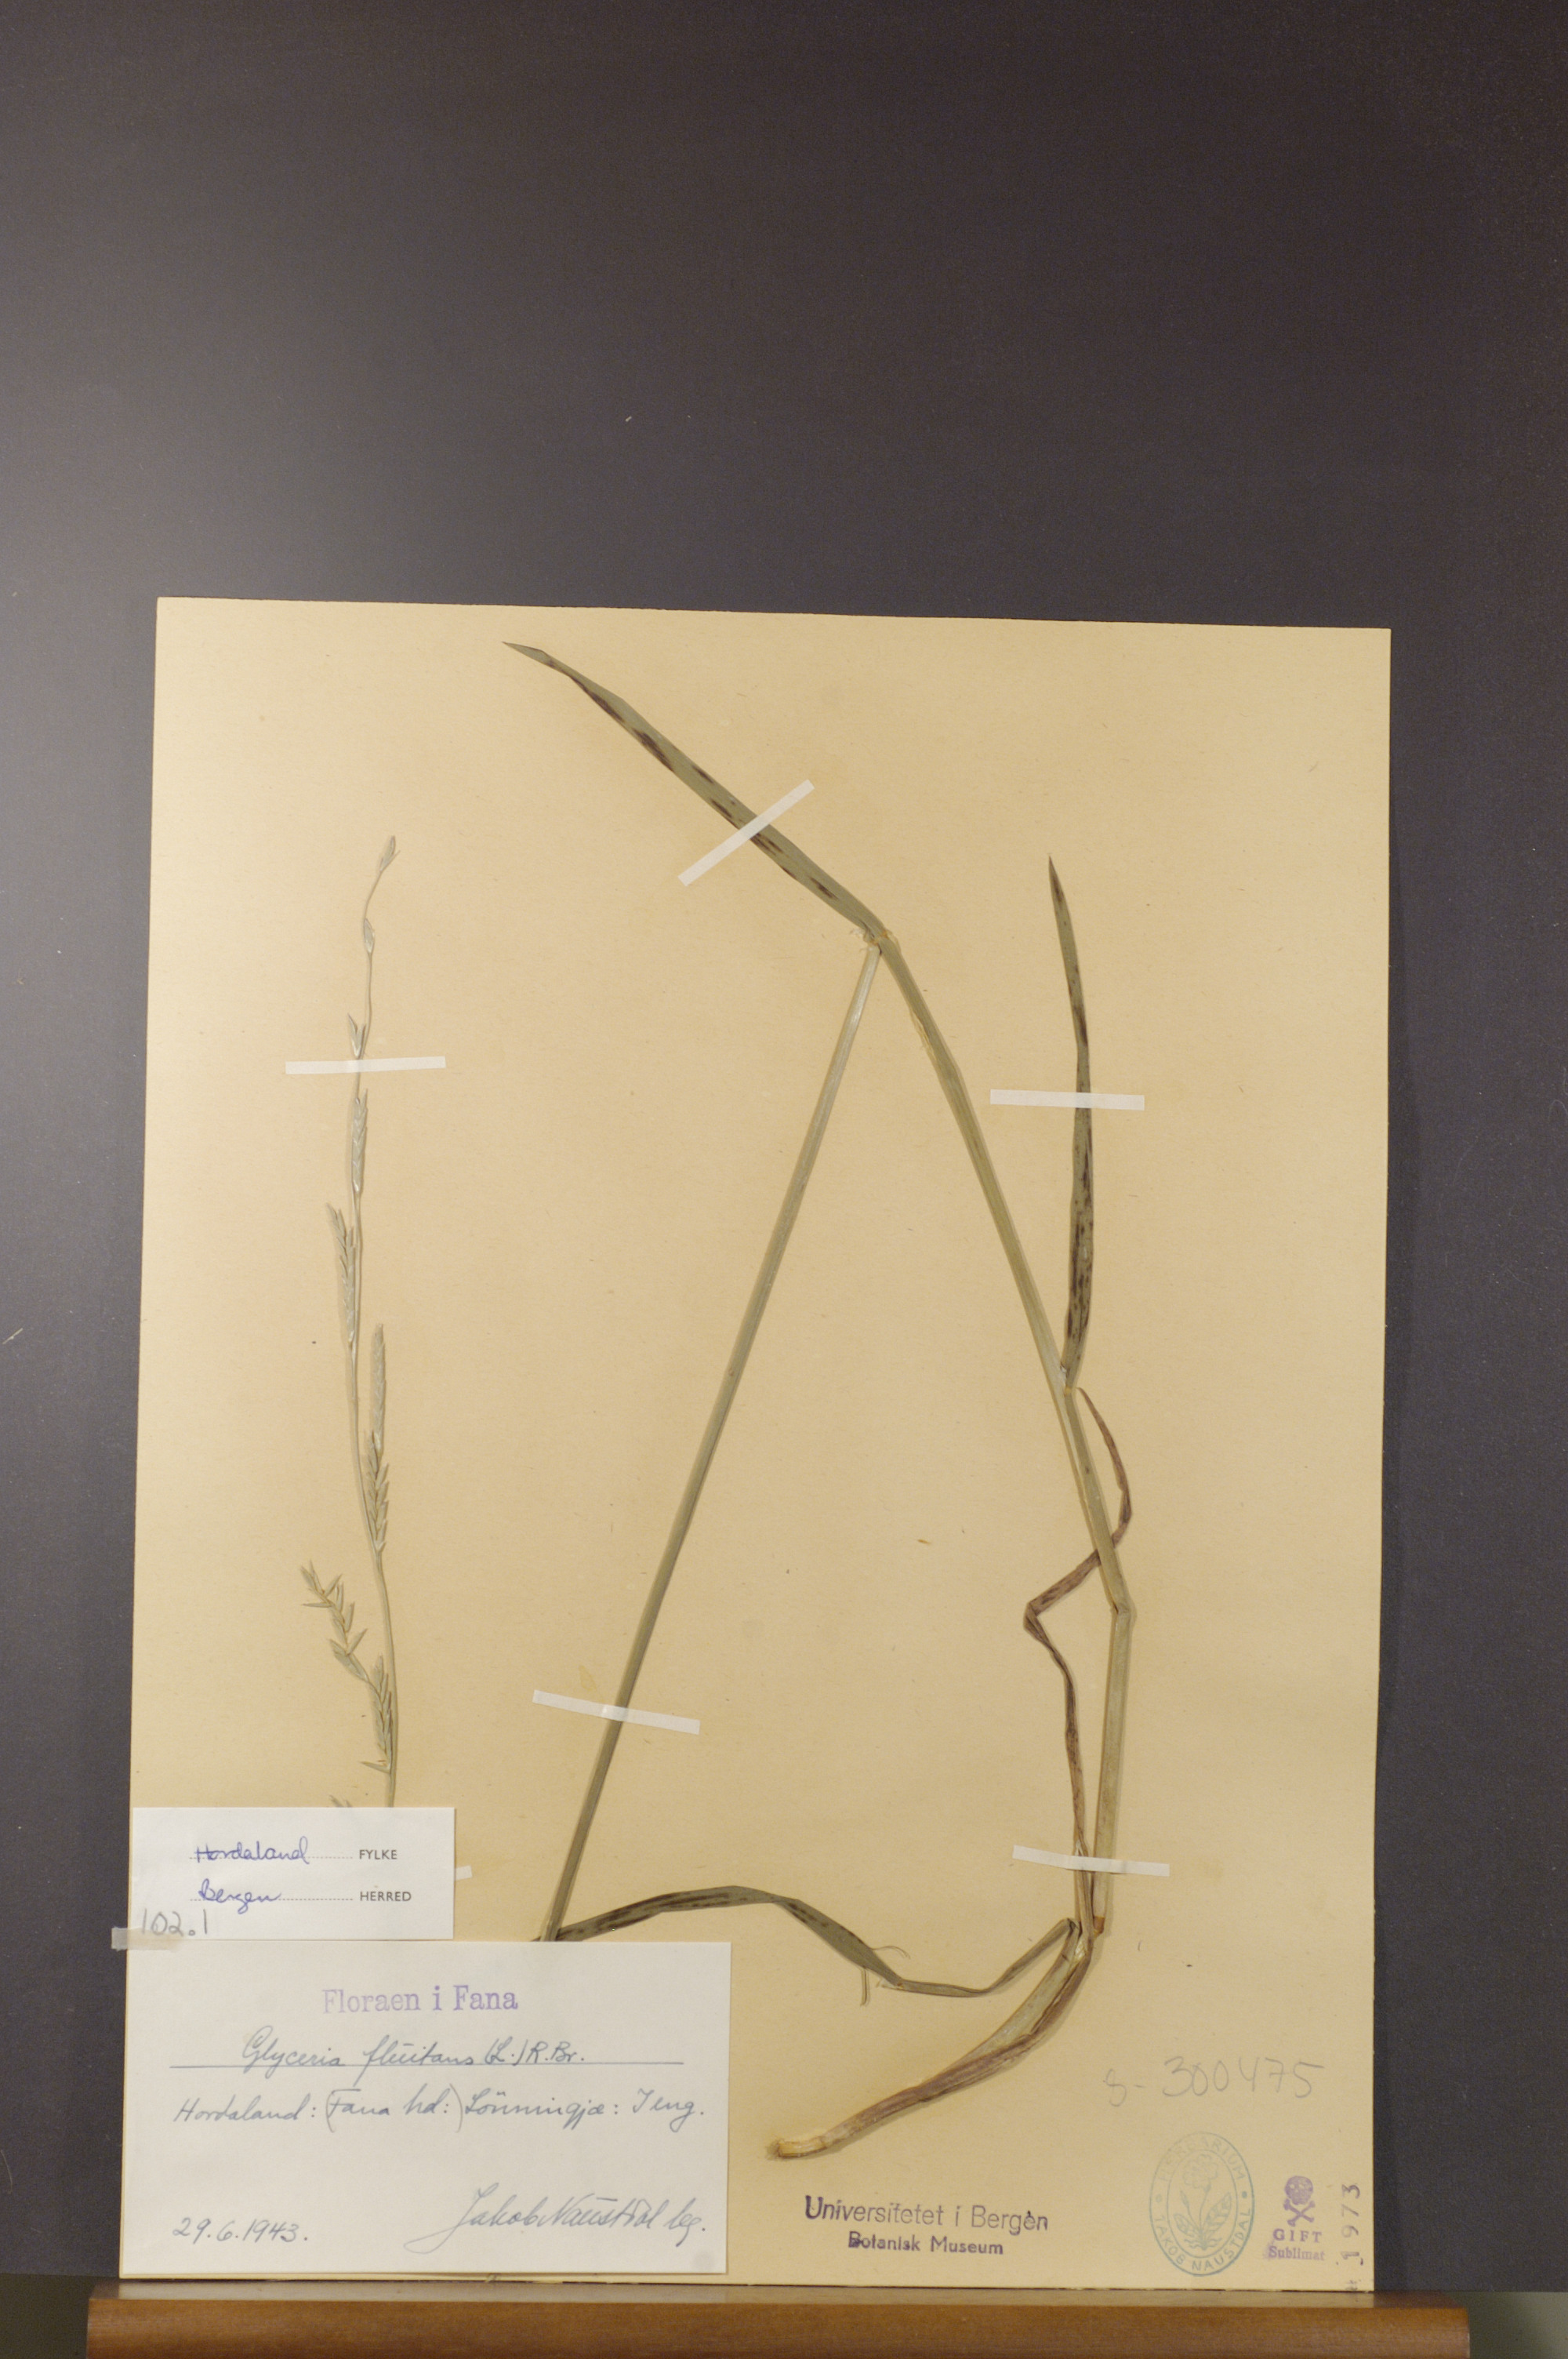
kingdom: Plantae
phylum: Tracheophyta
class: Liliopsida
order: Poales
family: Poaceae
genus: Glyceria
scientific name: Glyceria fluitans
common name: Floating sweet-grass
